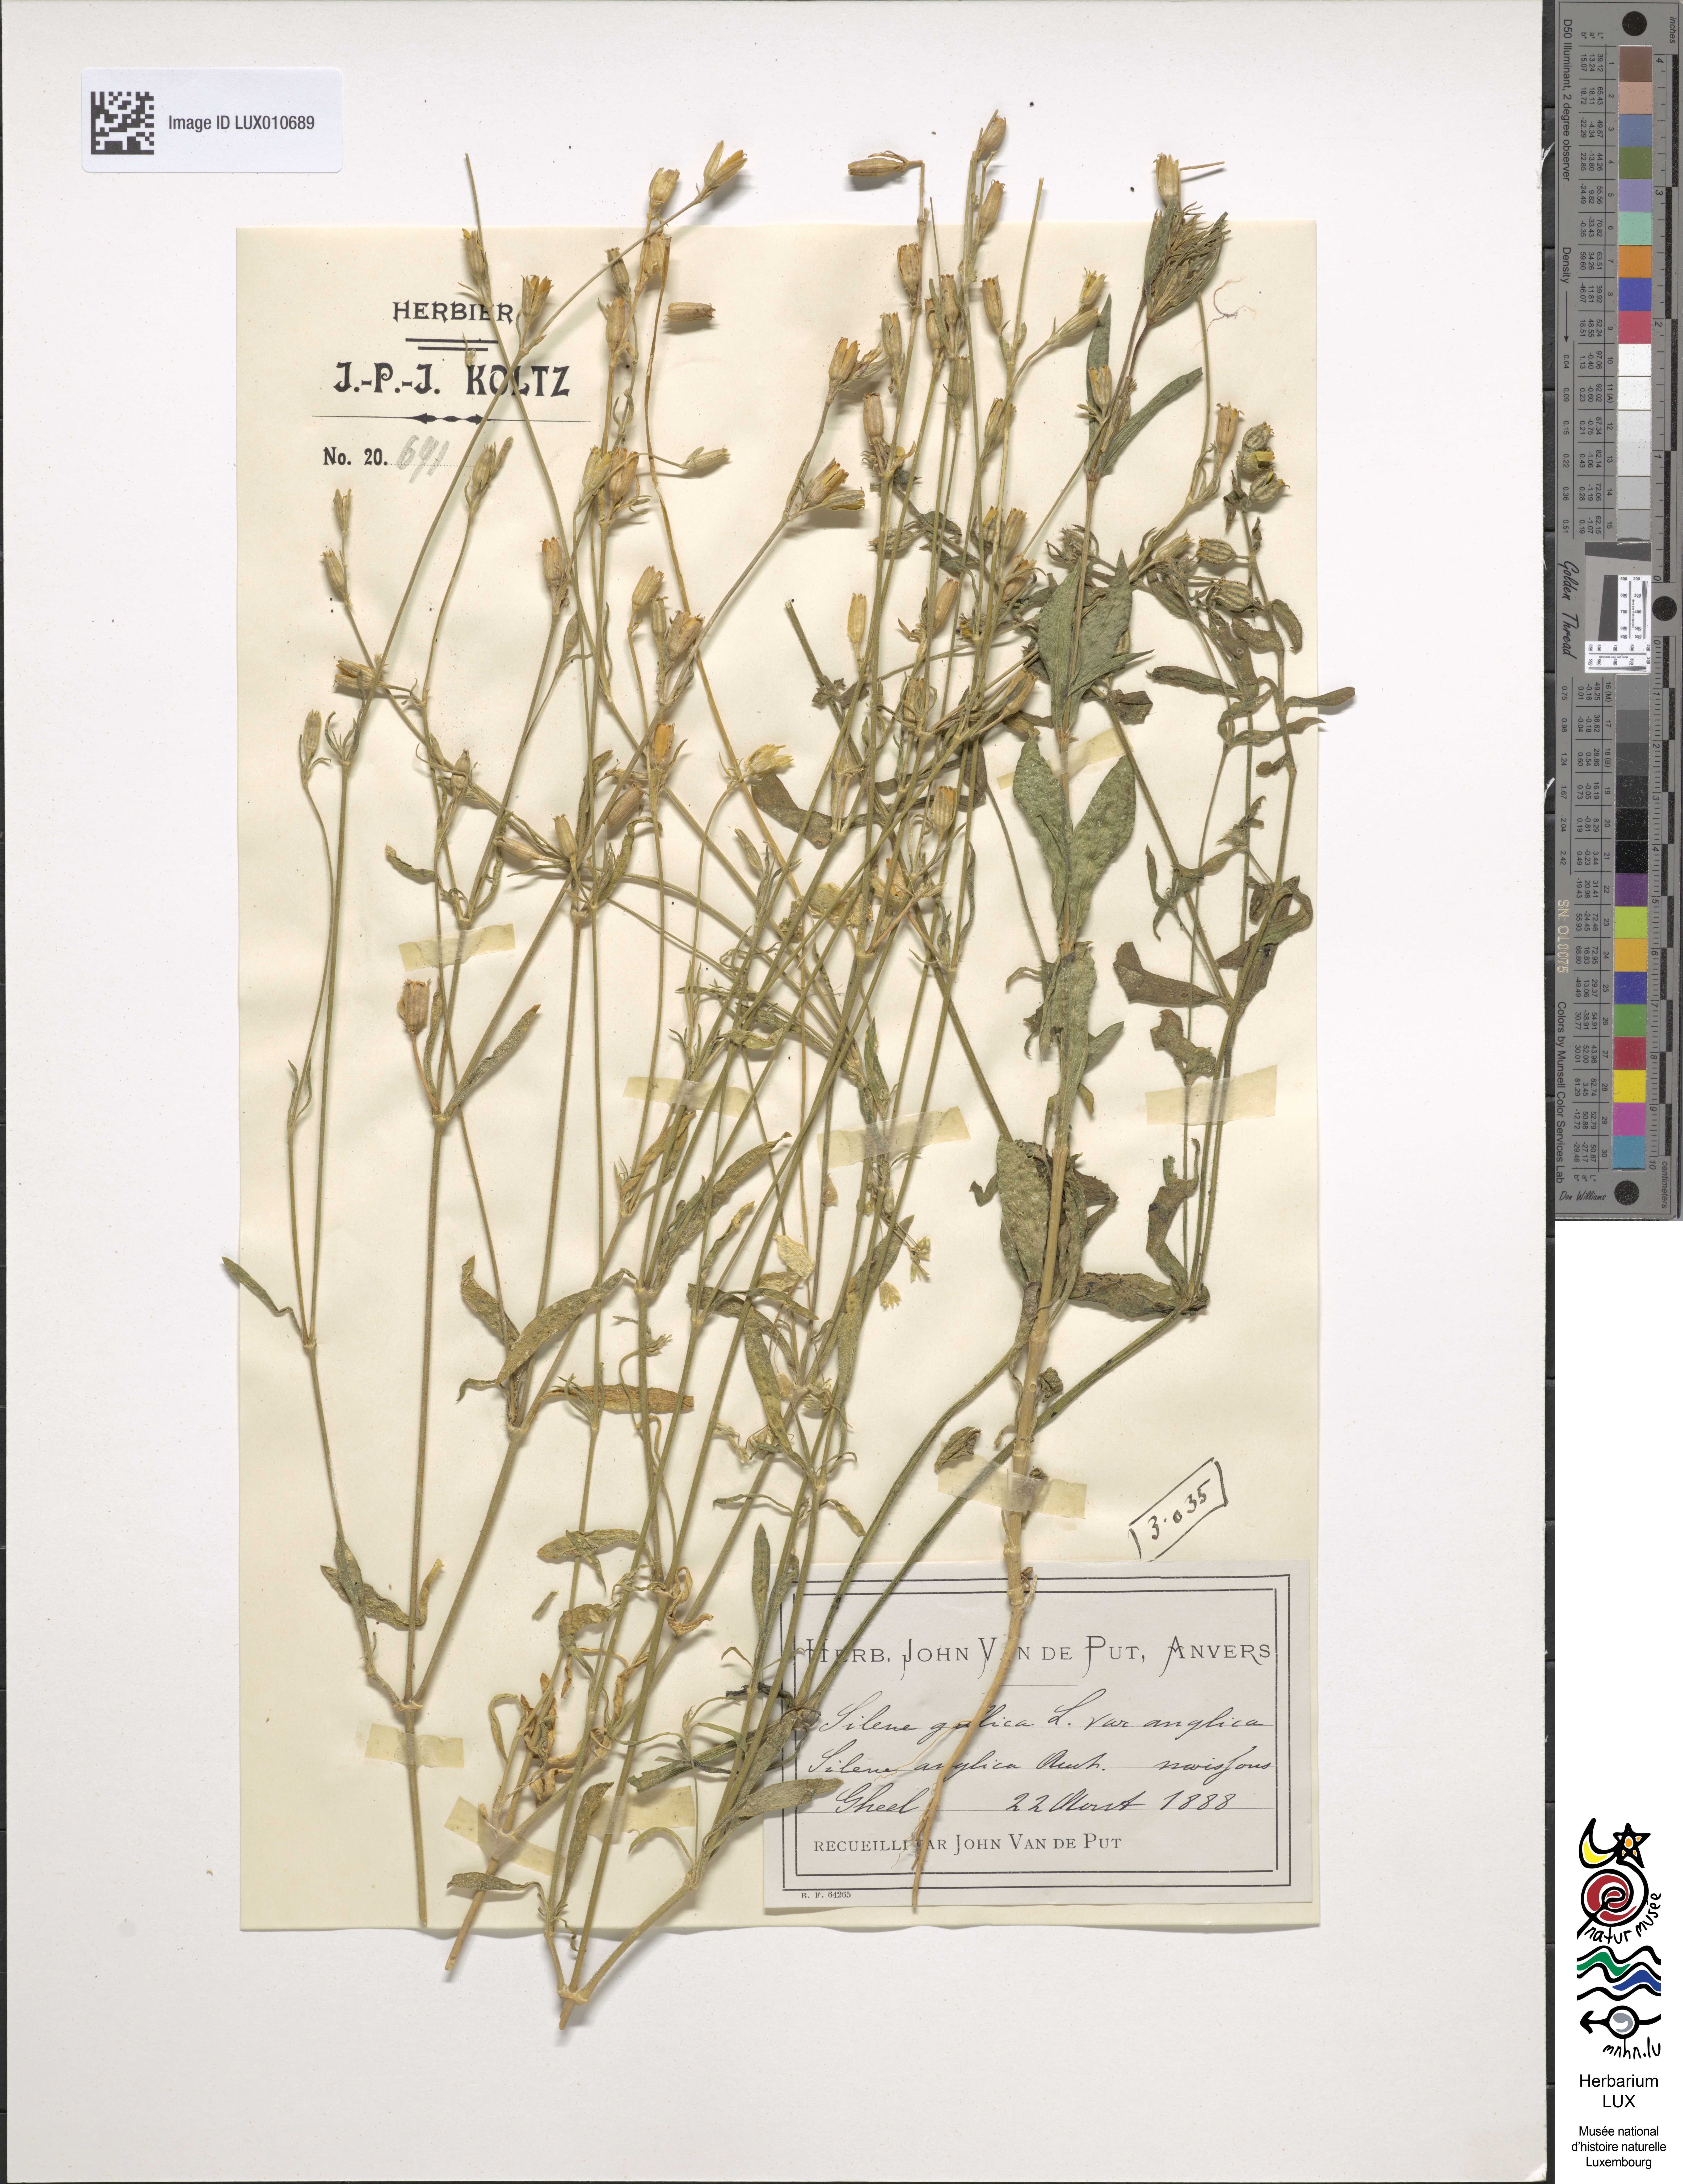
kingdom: Plantae
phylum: Tracheophyta
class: Magnoliopsida
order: Caryophyllales
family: Caryophyllaceae
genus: Silene
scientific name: Silene gallica
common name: Small-flowered catchfly
